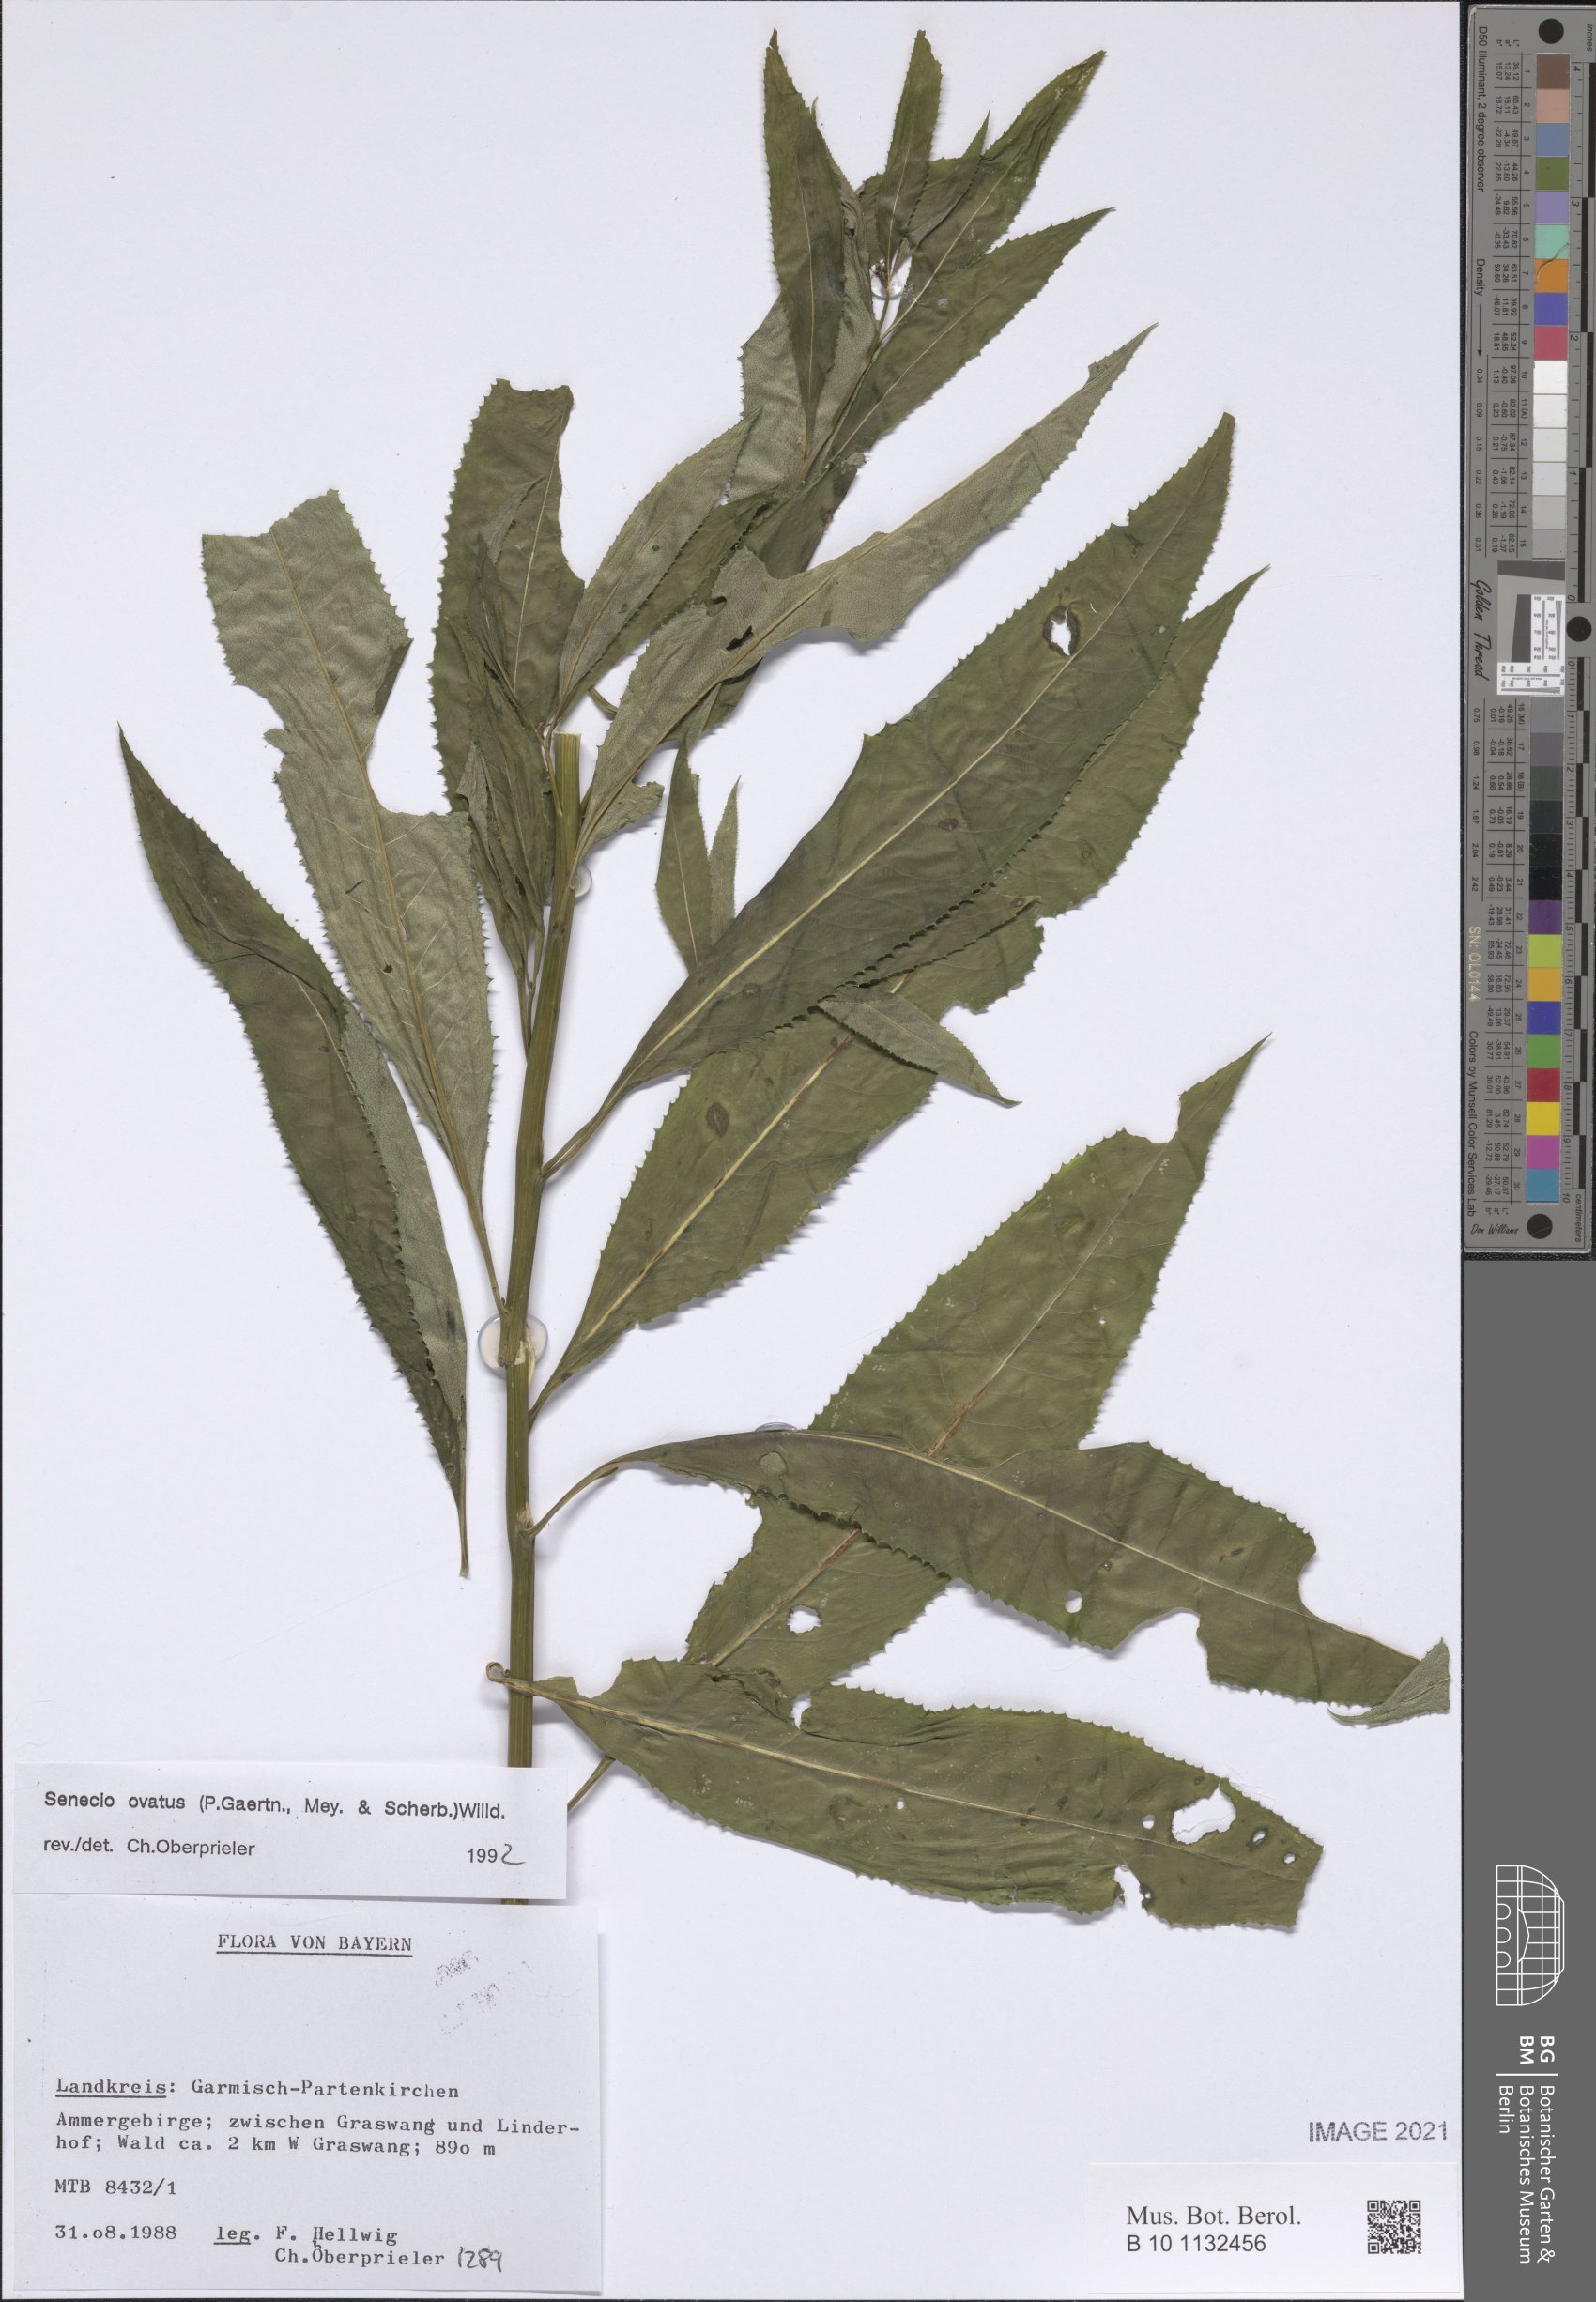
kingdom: Plantae
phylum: Tracheophyta
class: Magnoliopsida
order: Asterales
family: Asteraceae
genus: Senecio
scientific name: Senecio ovatus
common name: Wood ragwort
